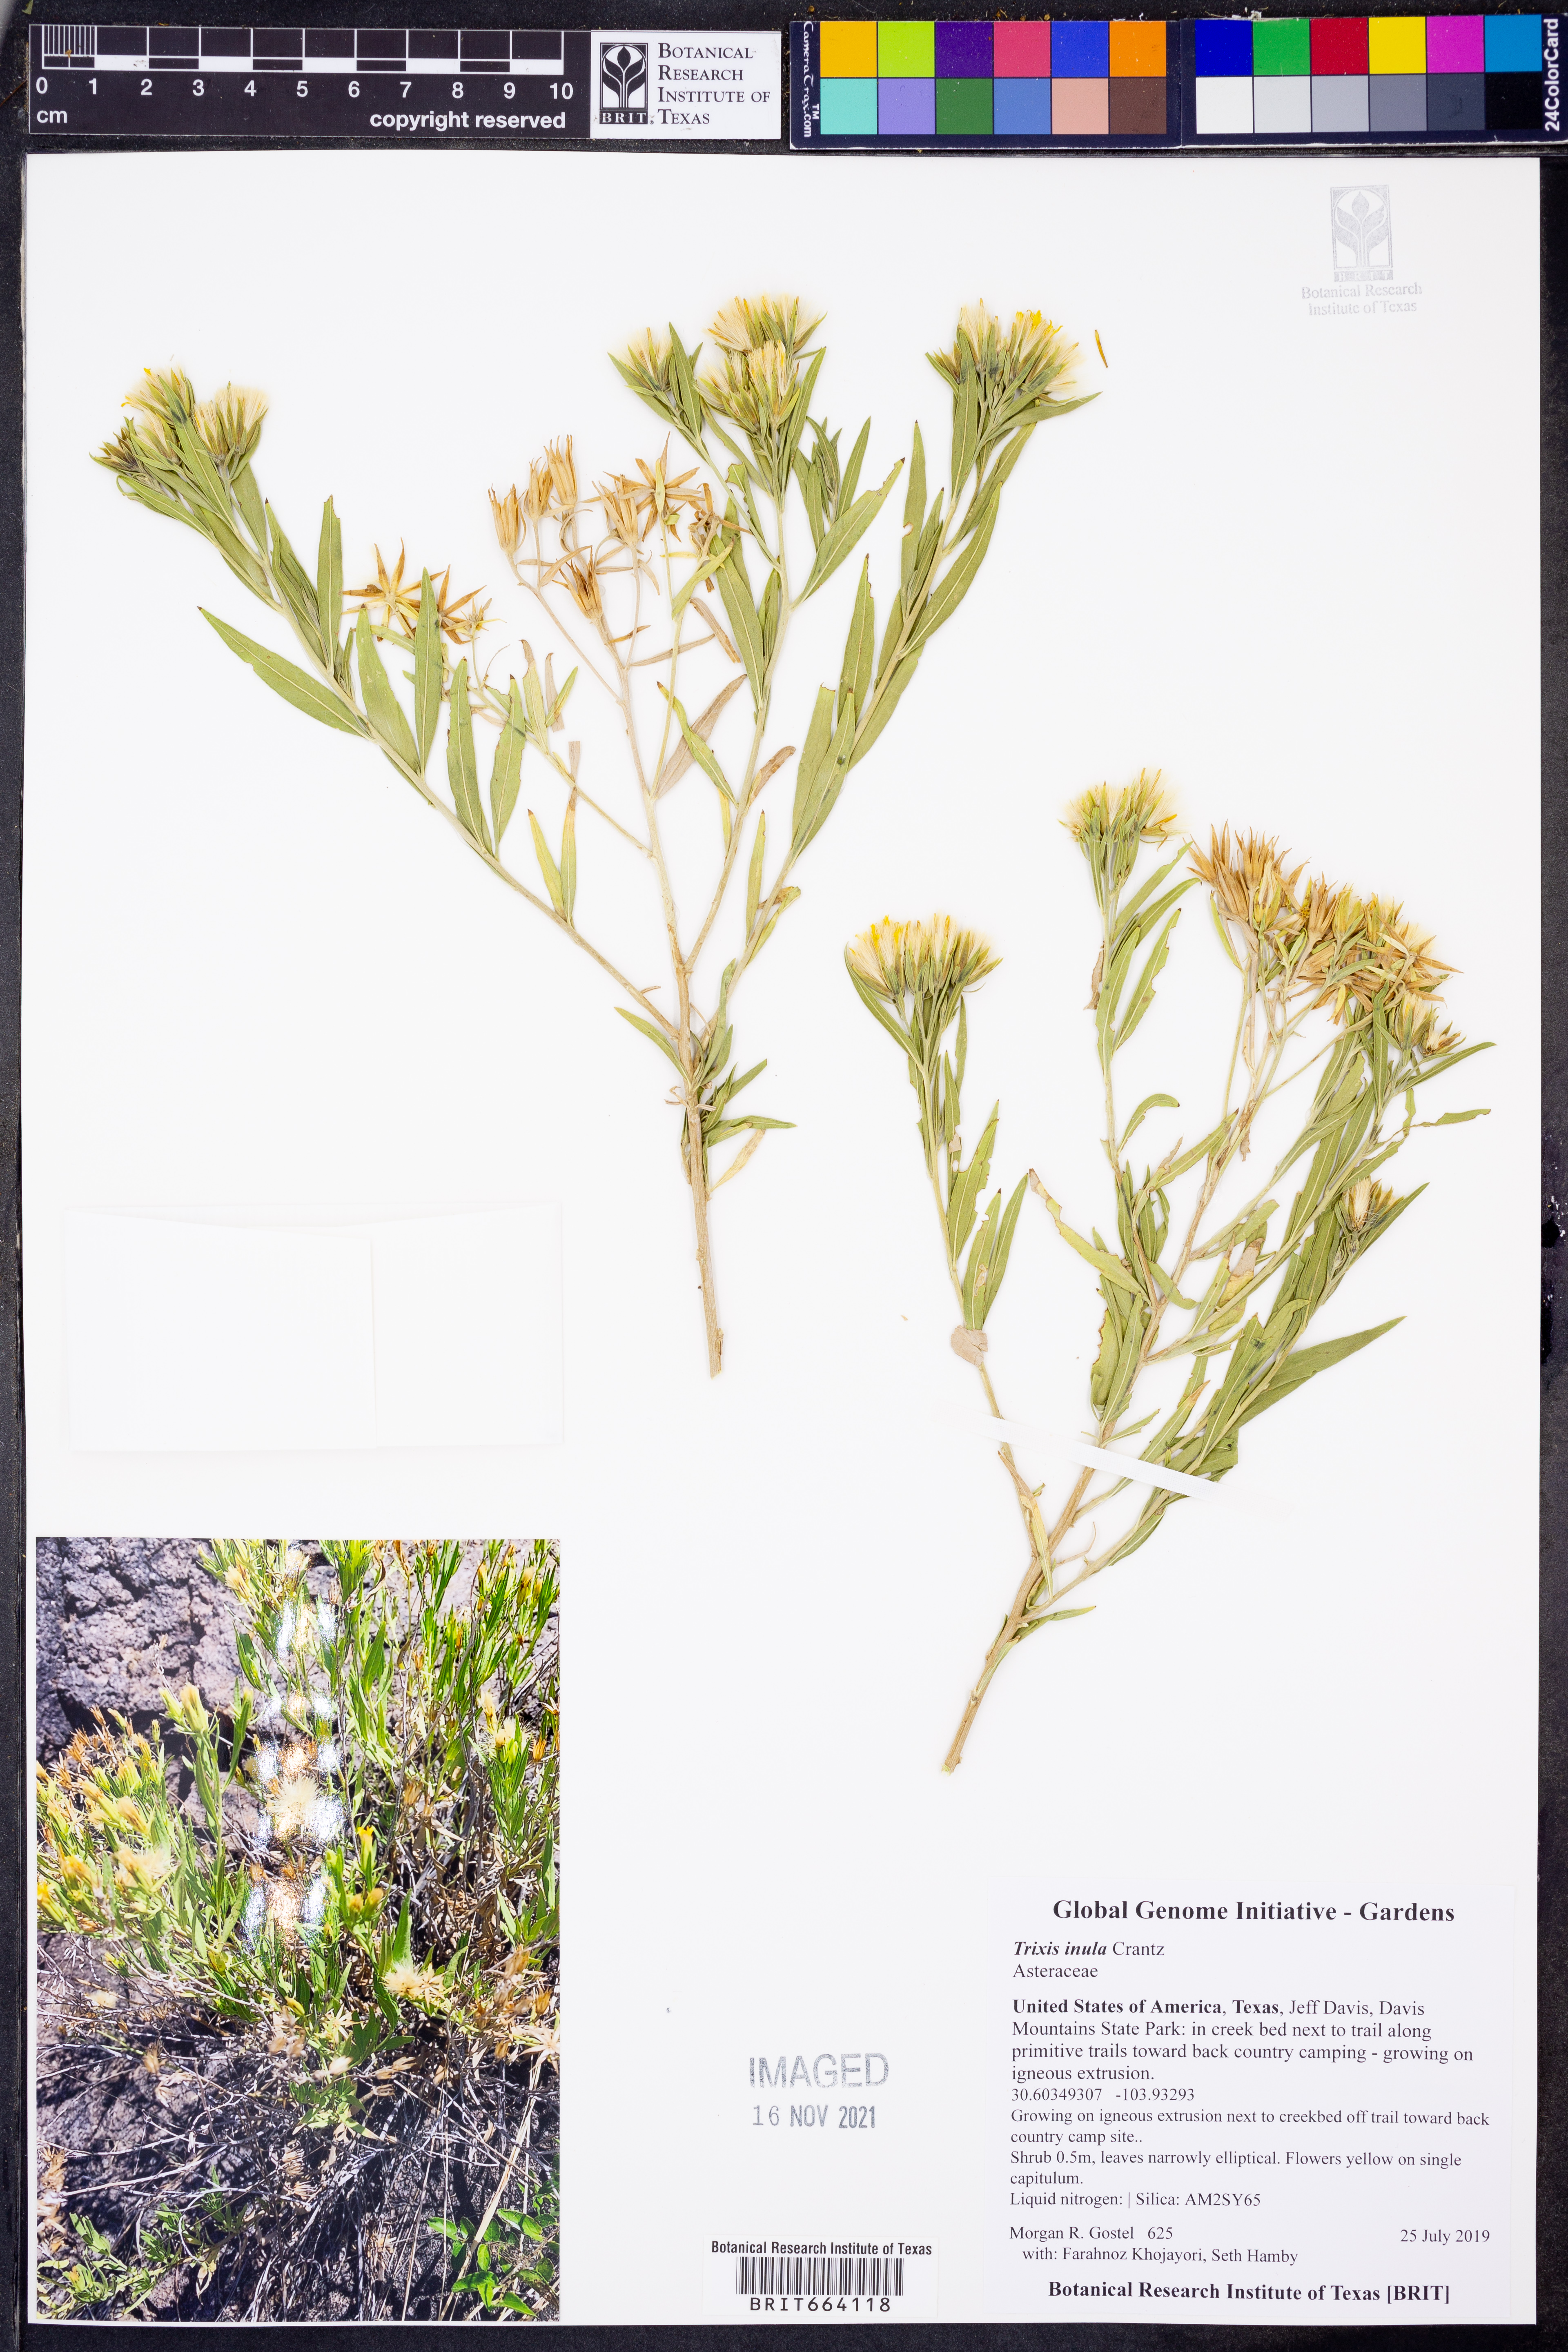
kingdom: Plantae
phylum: Tracheophyta
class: Magnoliopsida
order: Asterales
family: Asteraceae
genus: Trixis
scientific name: Trixis inula
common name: Tropical threefold
